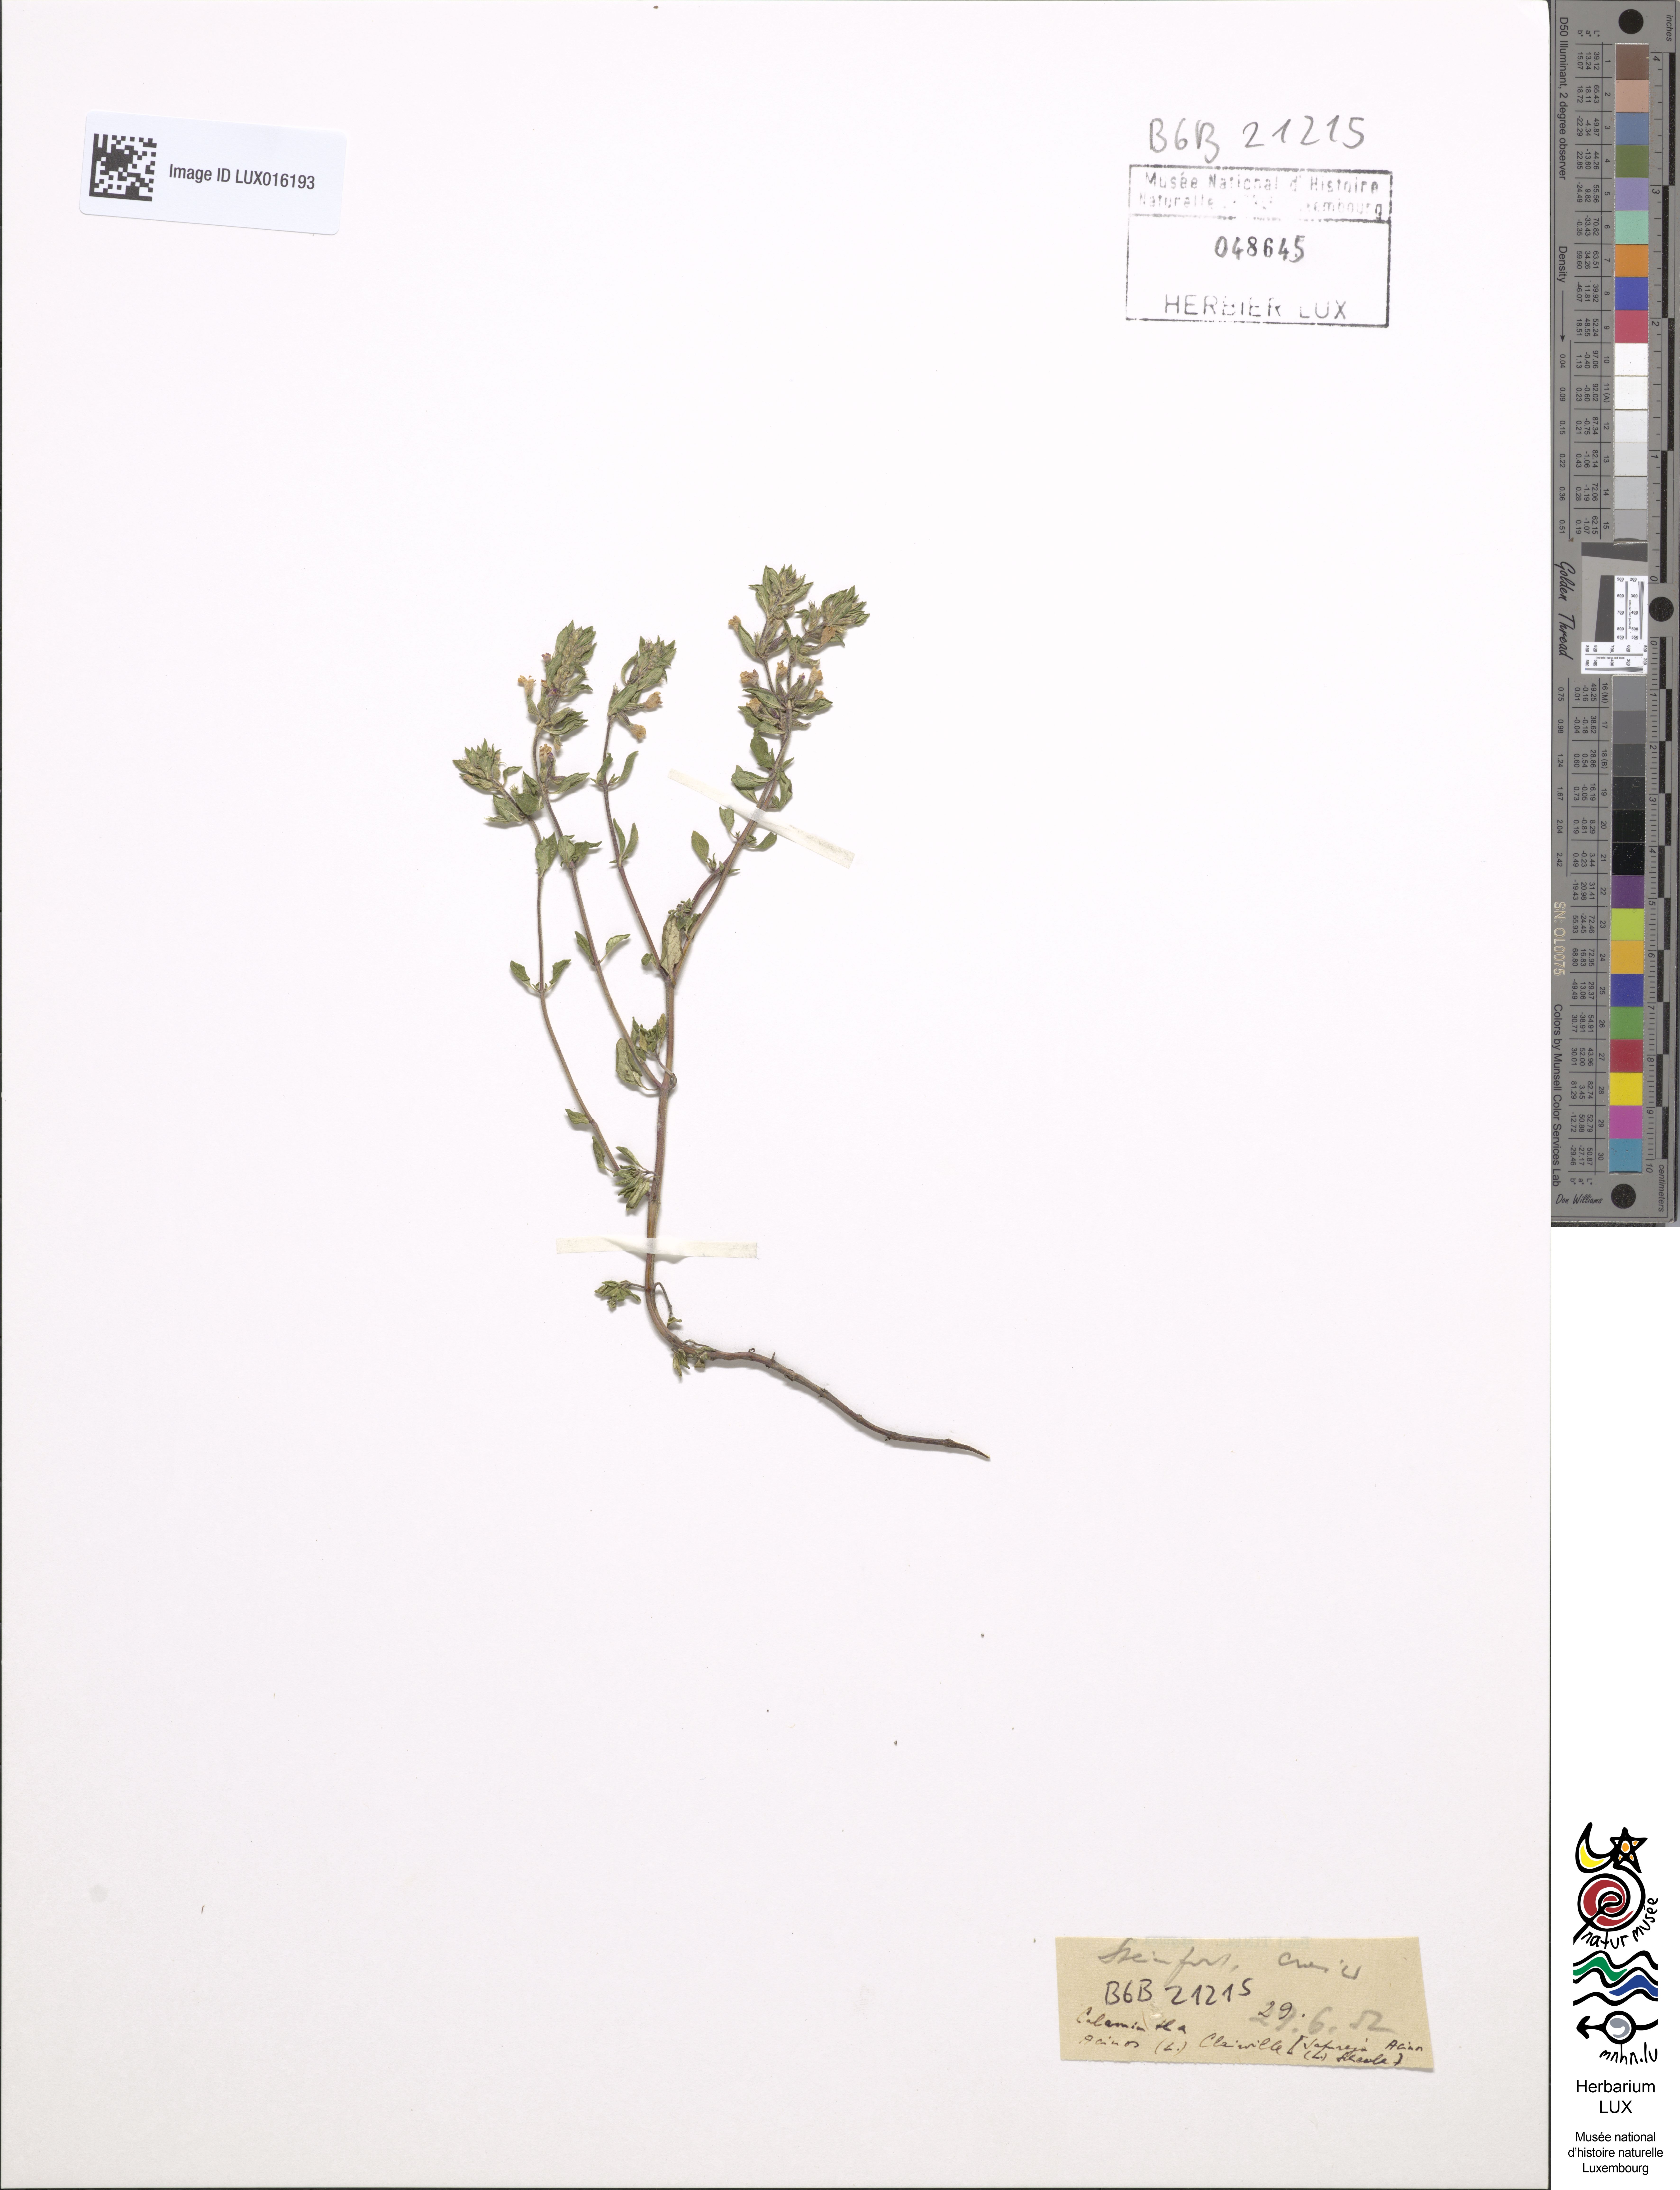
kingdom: Plantae
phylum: Tracheophyta
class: Magnoliopsida
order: Lamiales
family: Lamiaceae
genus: Clinopodium
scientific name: Clinopodium acinos
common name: Basil thyme
